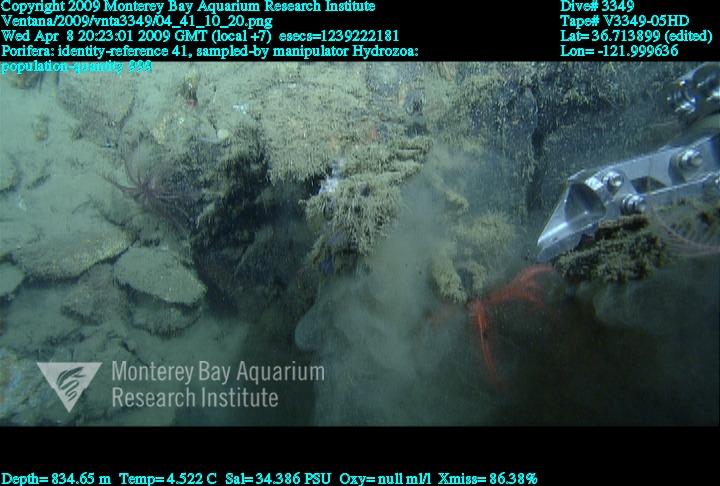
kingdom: Animalia
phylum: Porifera
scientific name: Porifera
